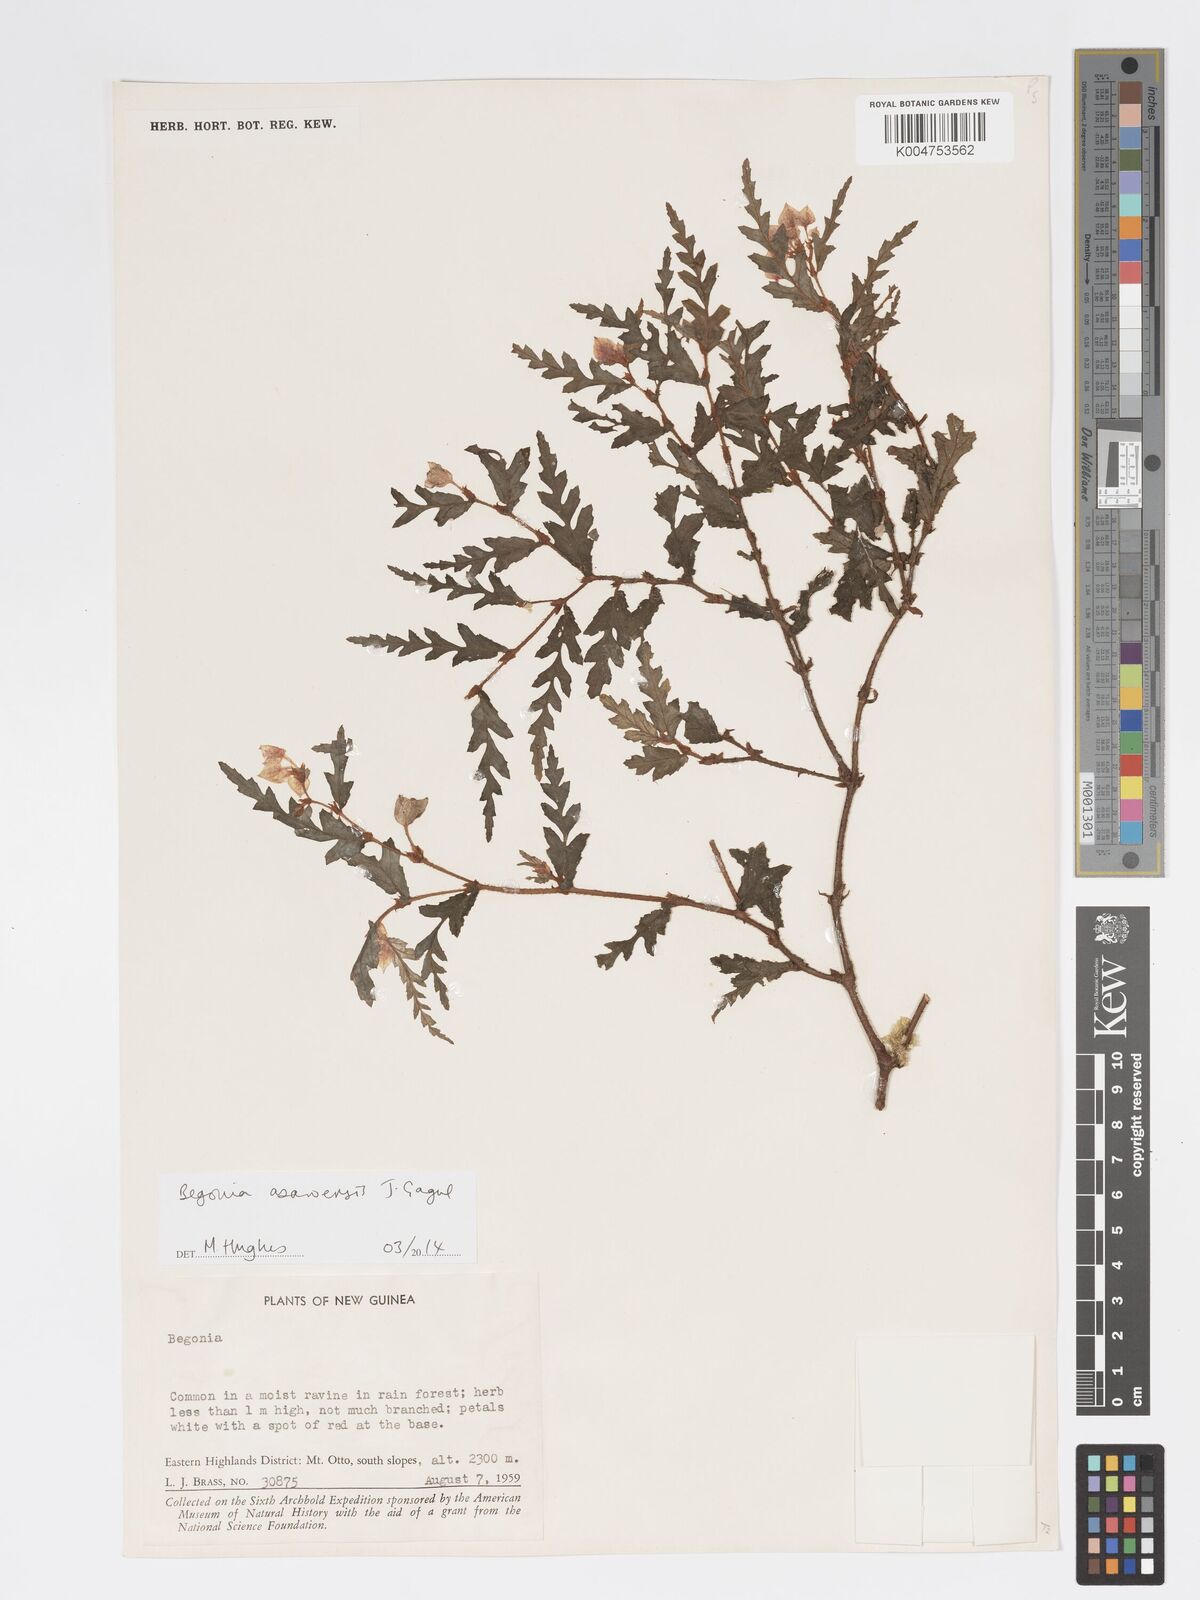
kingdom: Plantae
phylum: Tracheophyta
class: Magnoliopsida
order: Cucurbitales
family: Begoniaceae
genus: Begonia
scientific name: Begonia asaroensis
